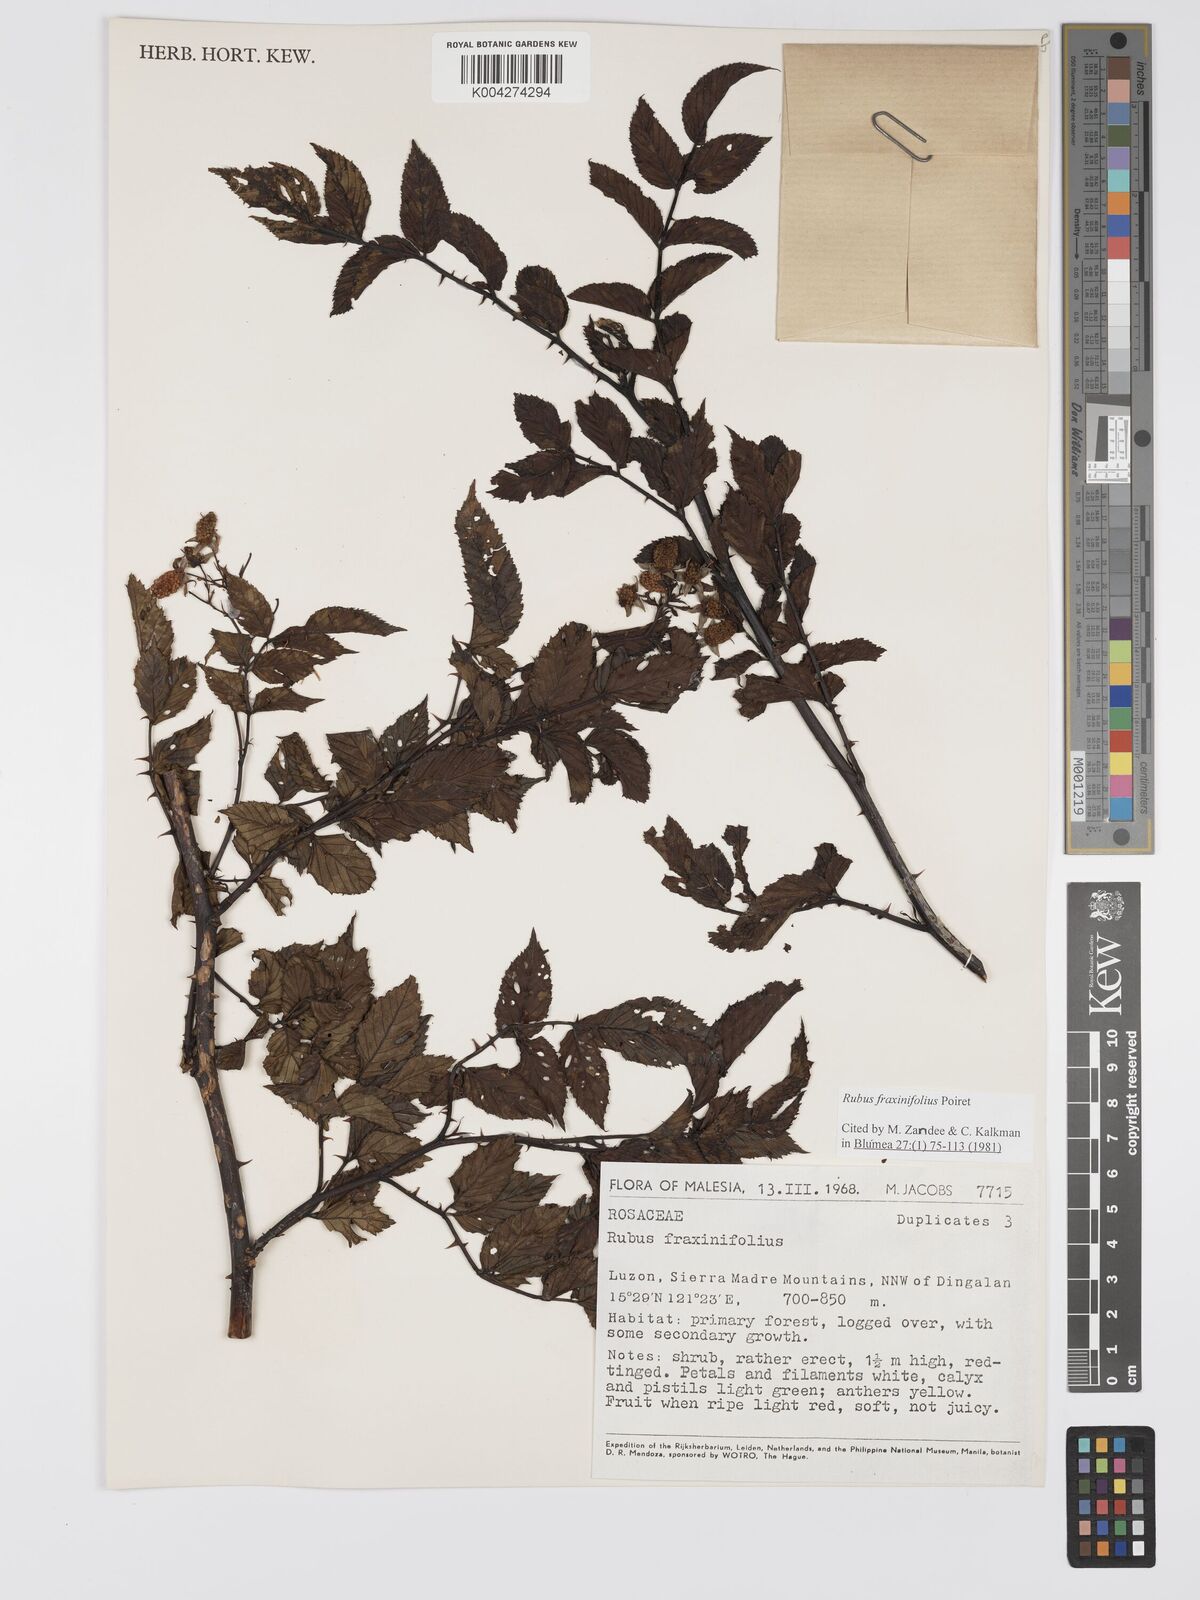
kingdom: Plantae
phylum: Tracheophyta
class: Magnoliopsida
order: Rosales
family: Rosaceae
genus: Rubus
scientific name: Rubus fraxinifolius
